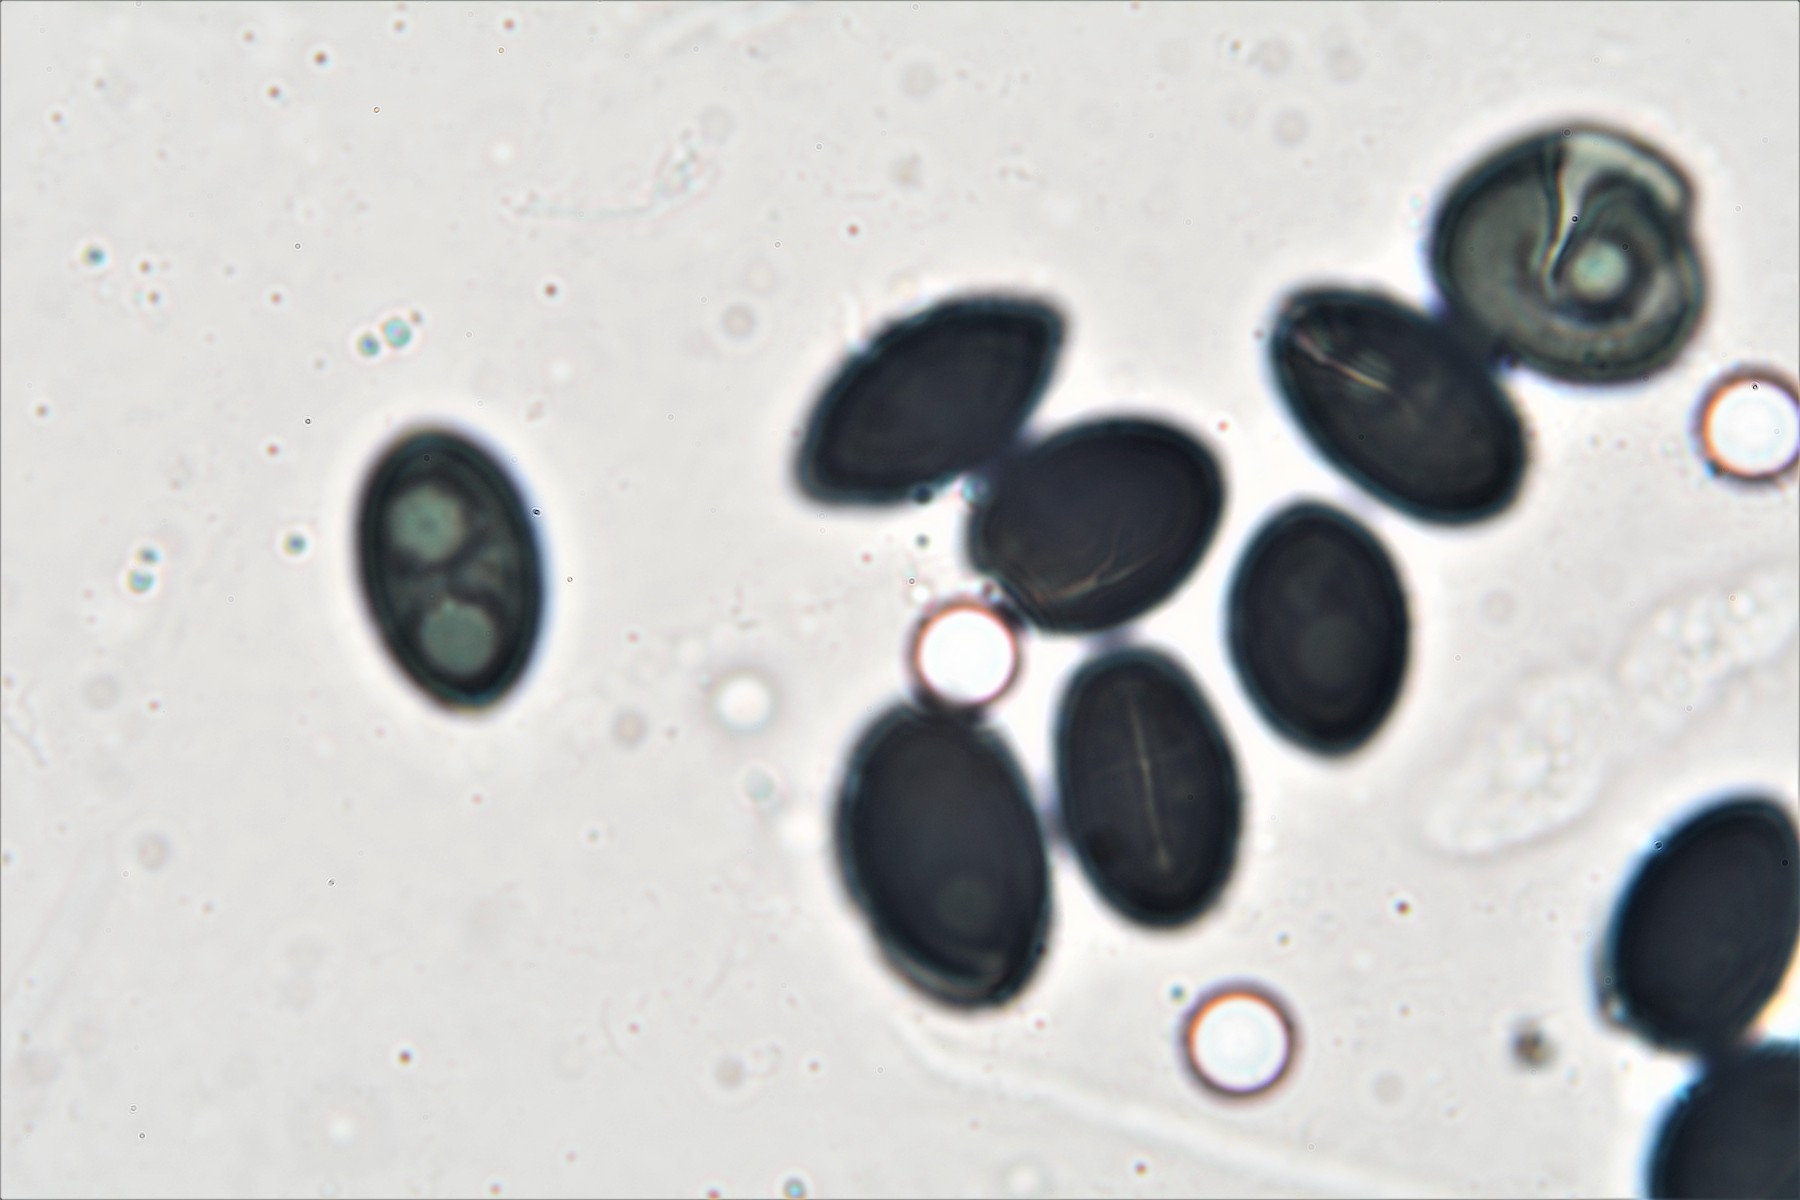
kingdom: Fungi
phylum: Ascomycota
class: Sordariomycetes
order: Xylariales
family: Graphostromataceae
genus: Biscogniauxia
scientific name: Biscogniauxia nummularia
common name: bøge-kulskive
